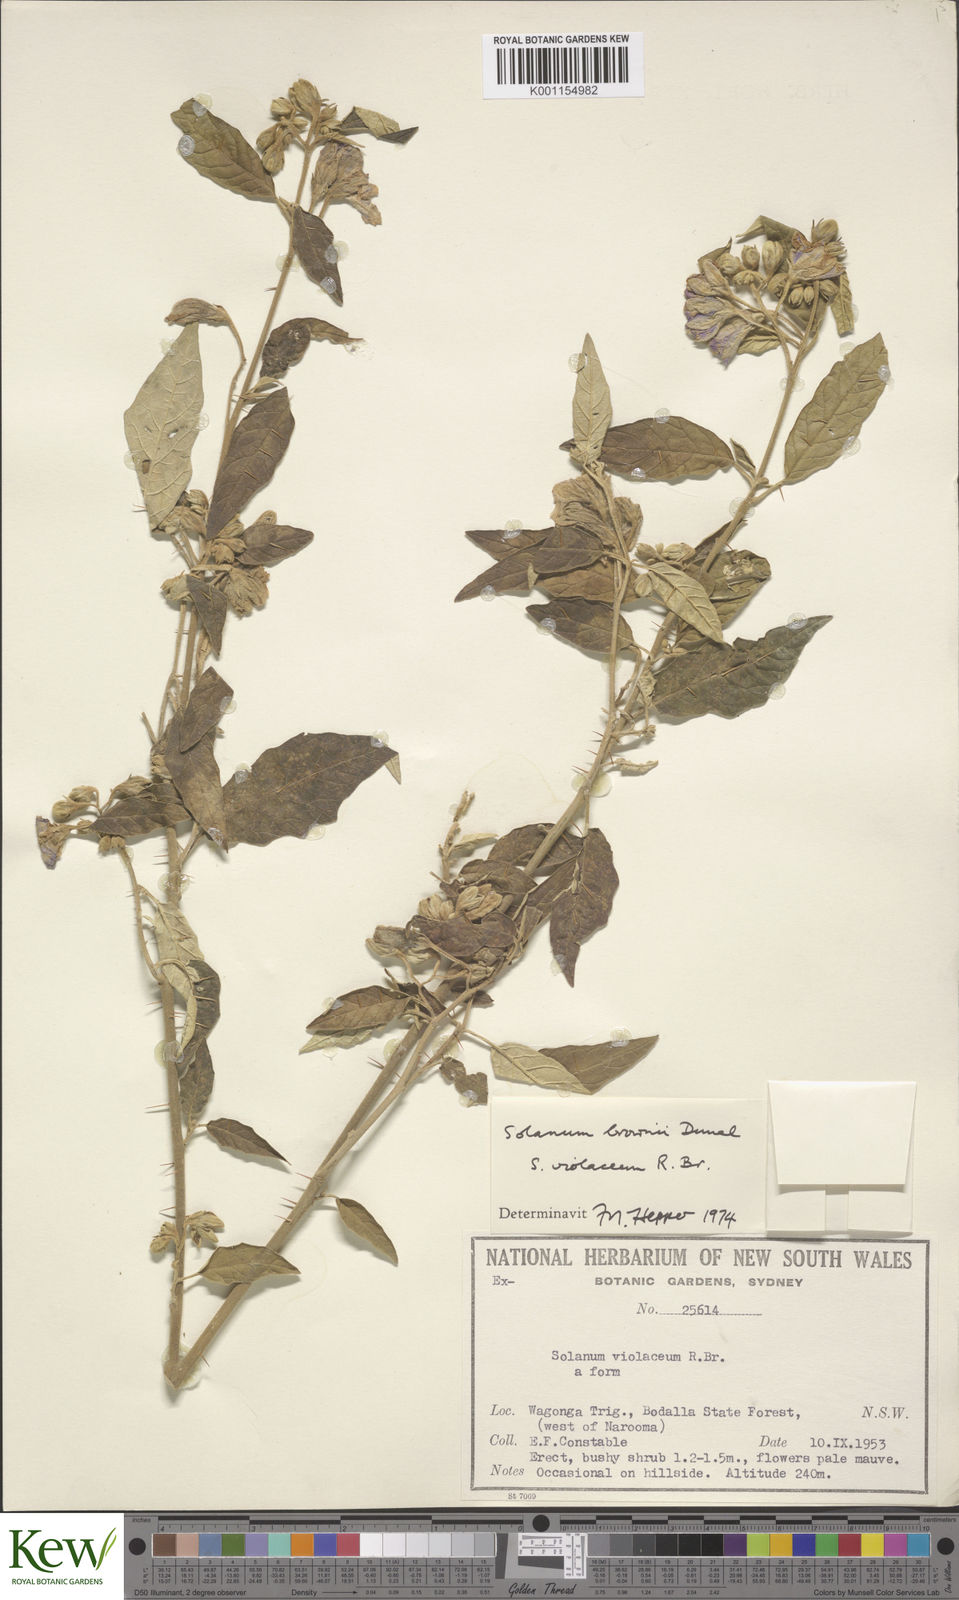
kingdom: Plantae
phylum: Tracheophyta
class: Magnoliopsida
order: Solanales
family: Solanaceae
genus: Solanum
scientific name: Solanum brownii
